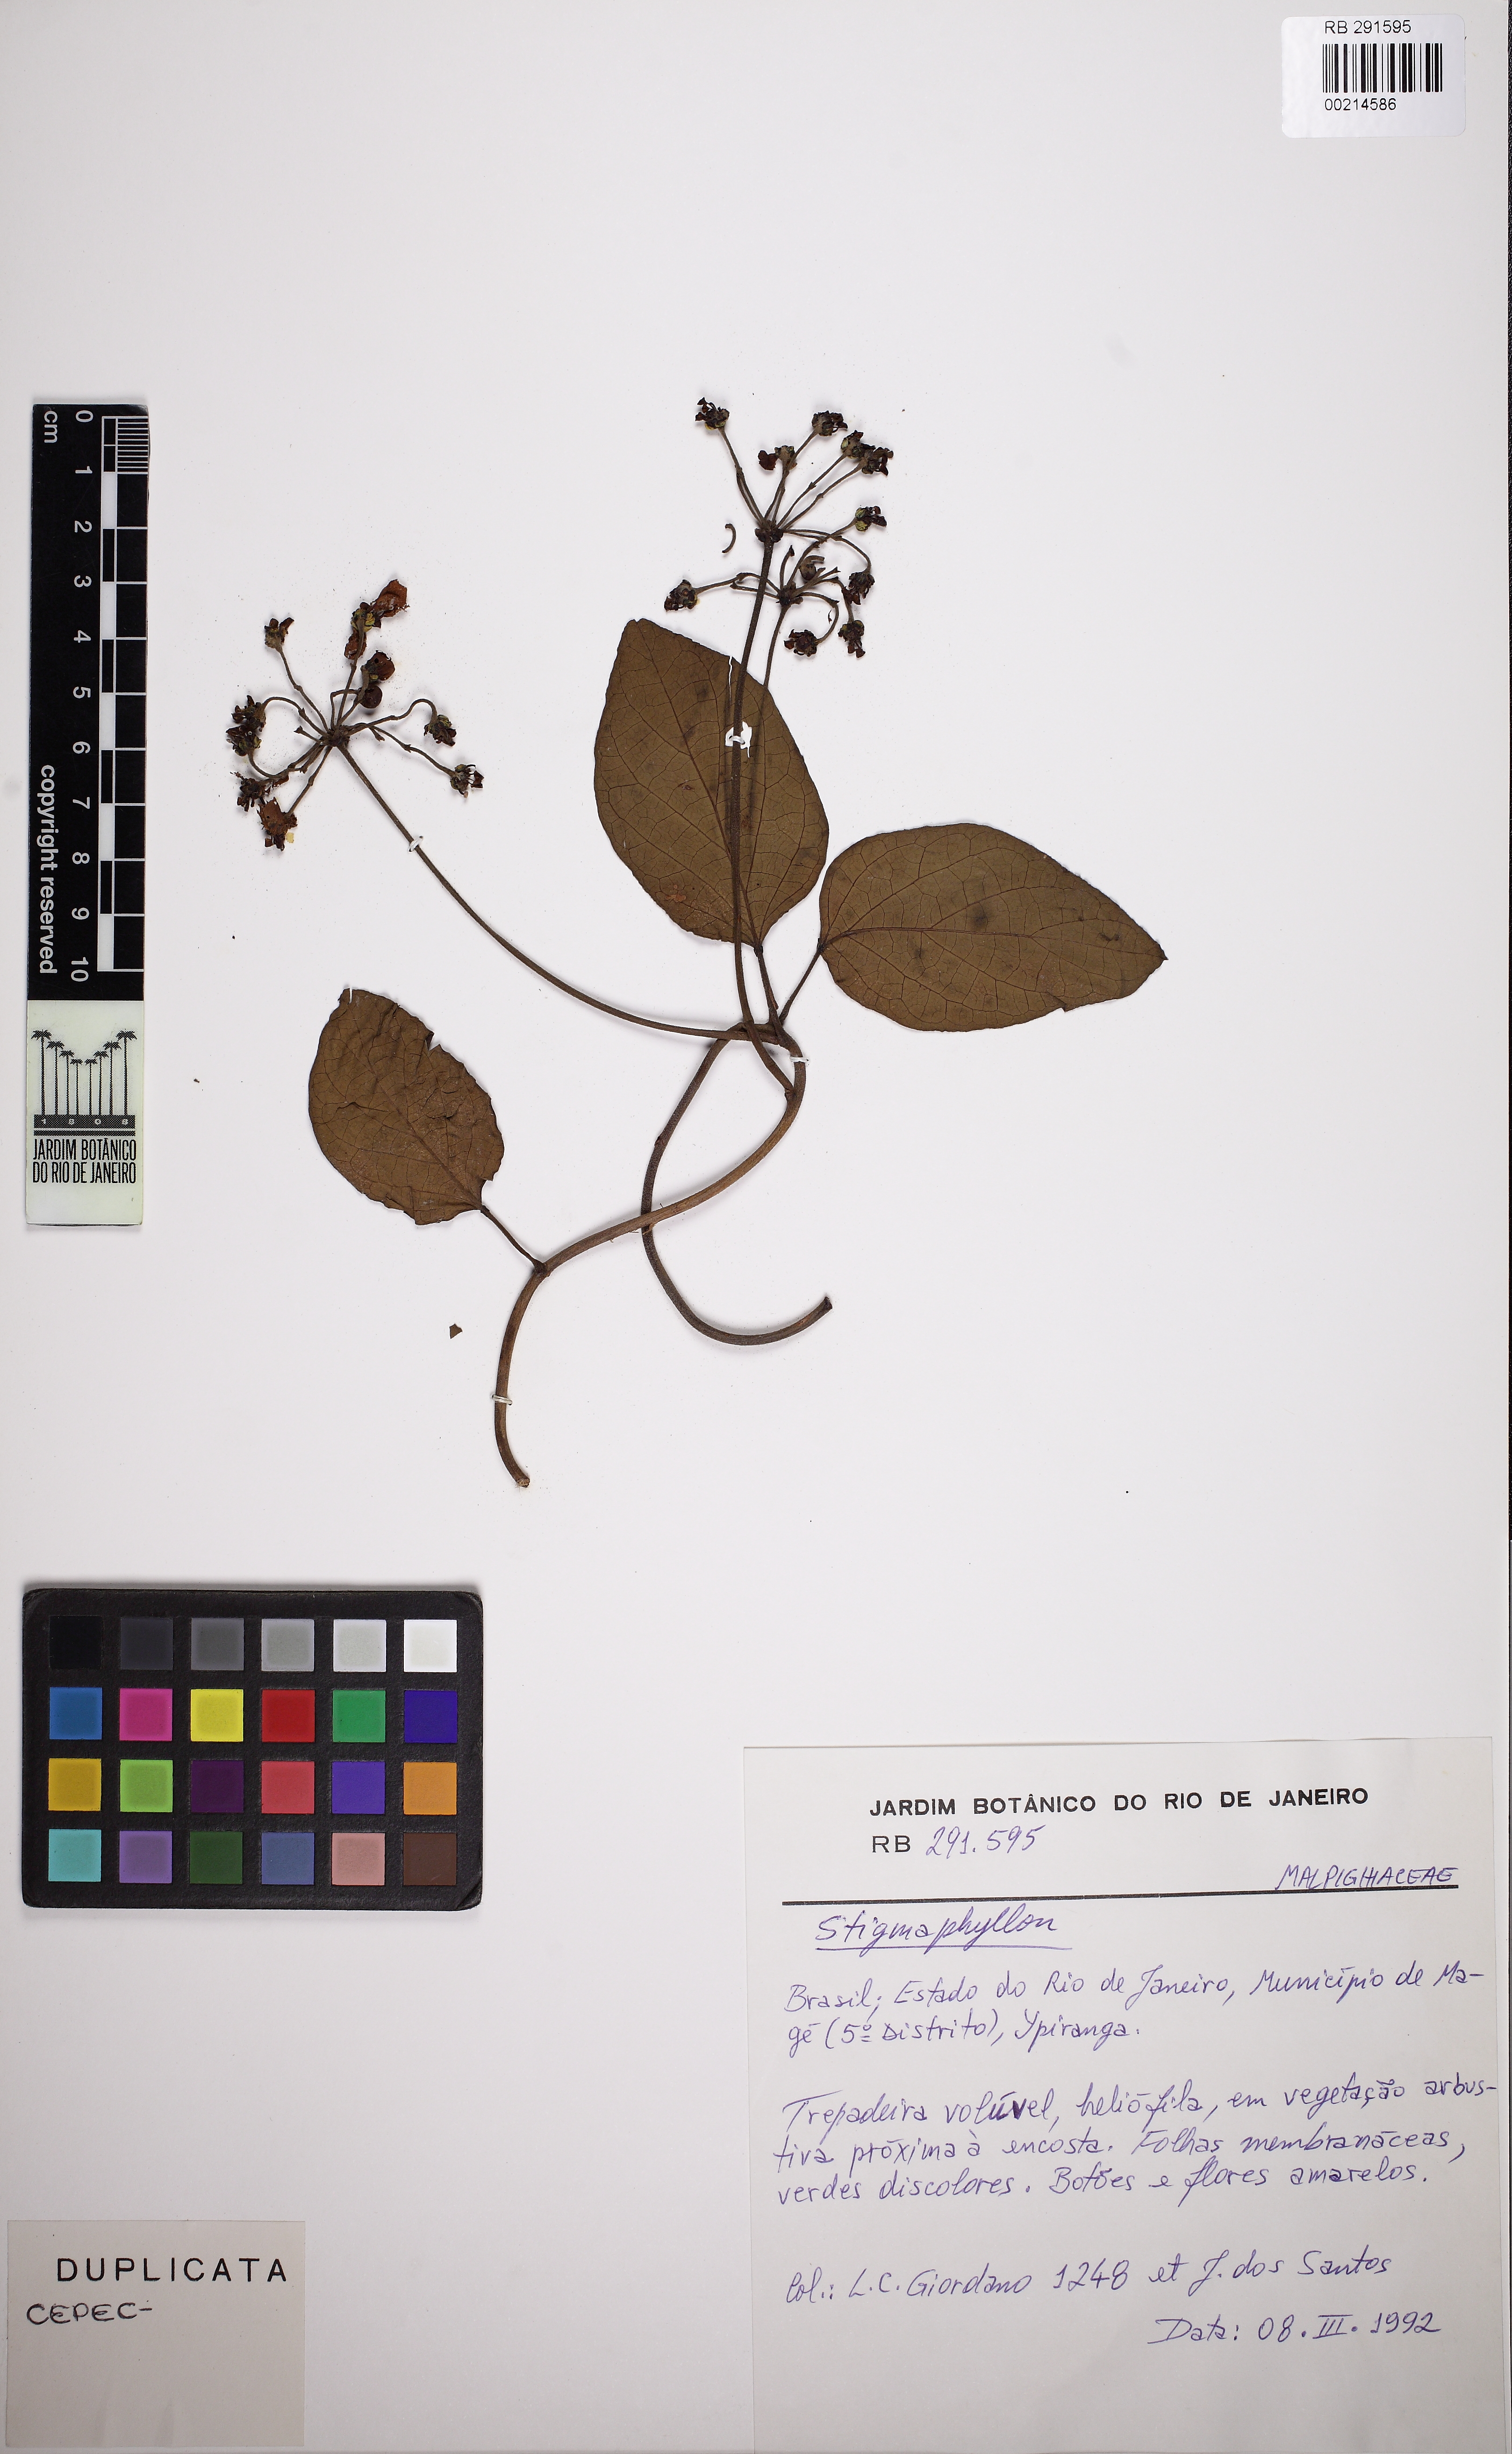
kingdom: Plantae
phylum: Tracheophyta
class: Magnoliopsida
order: Malpighiales
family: Malpighiaceae
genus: Stigmaphyllon
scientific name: Stigmaphyllon salzmannii
